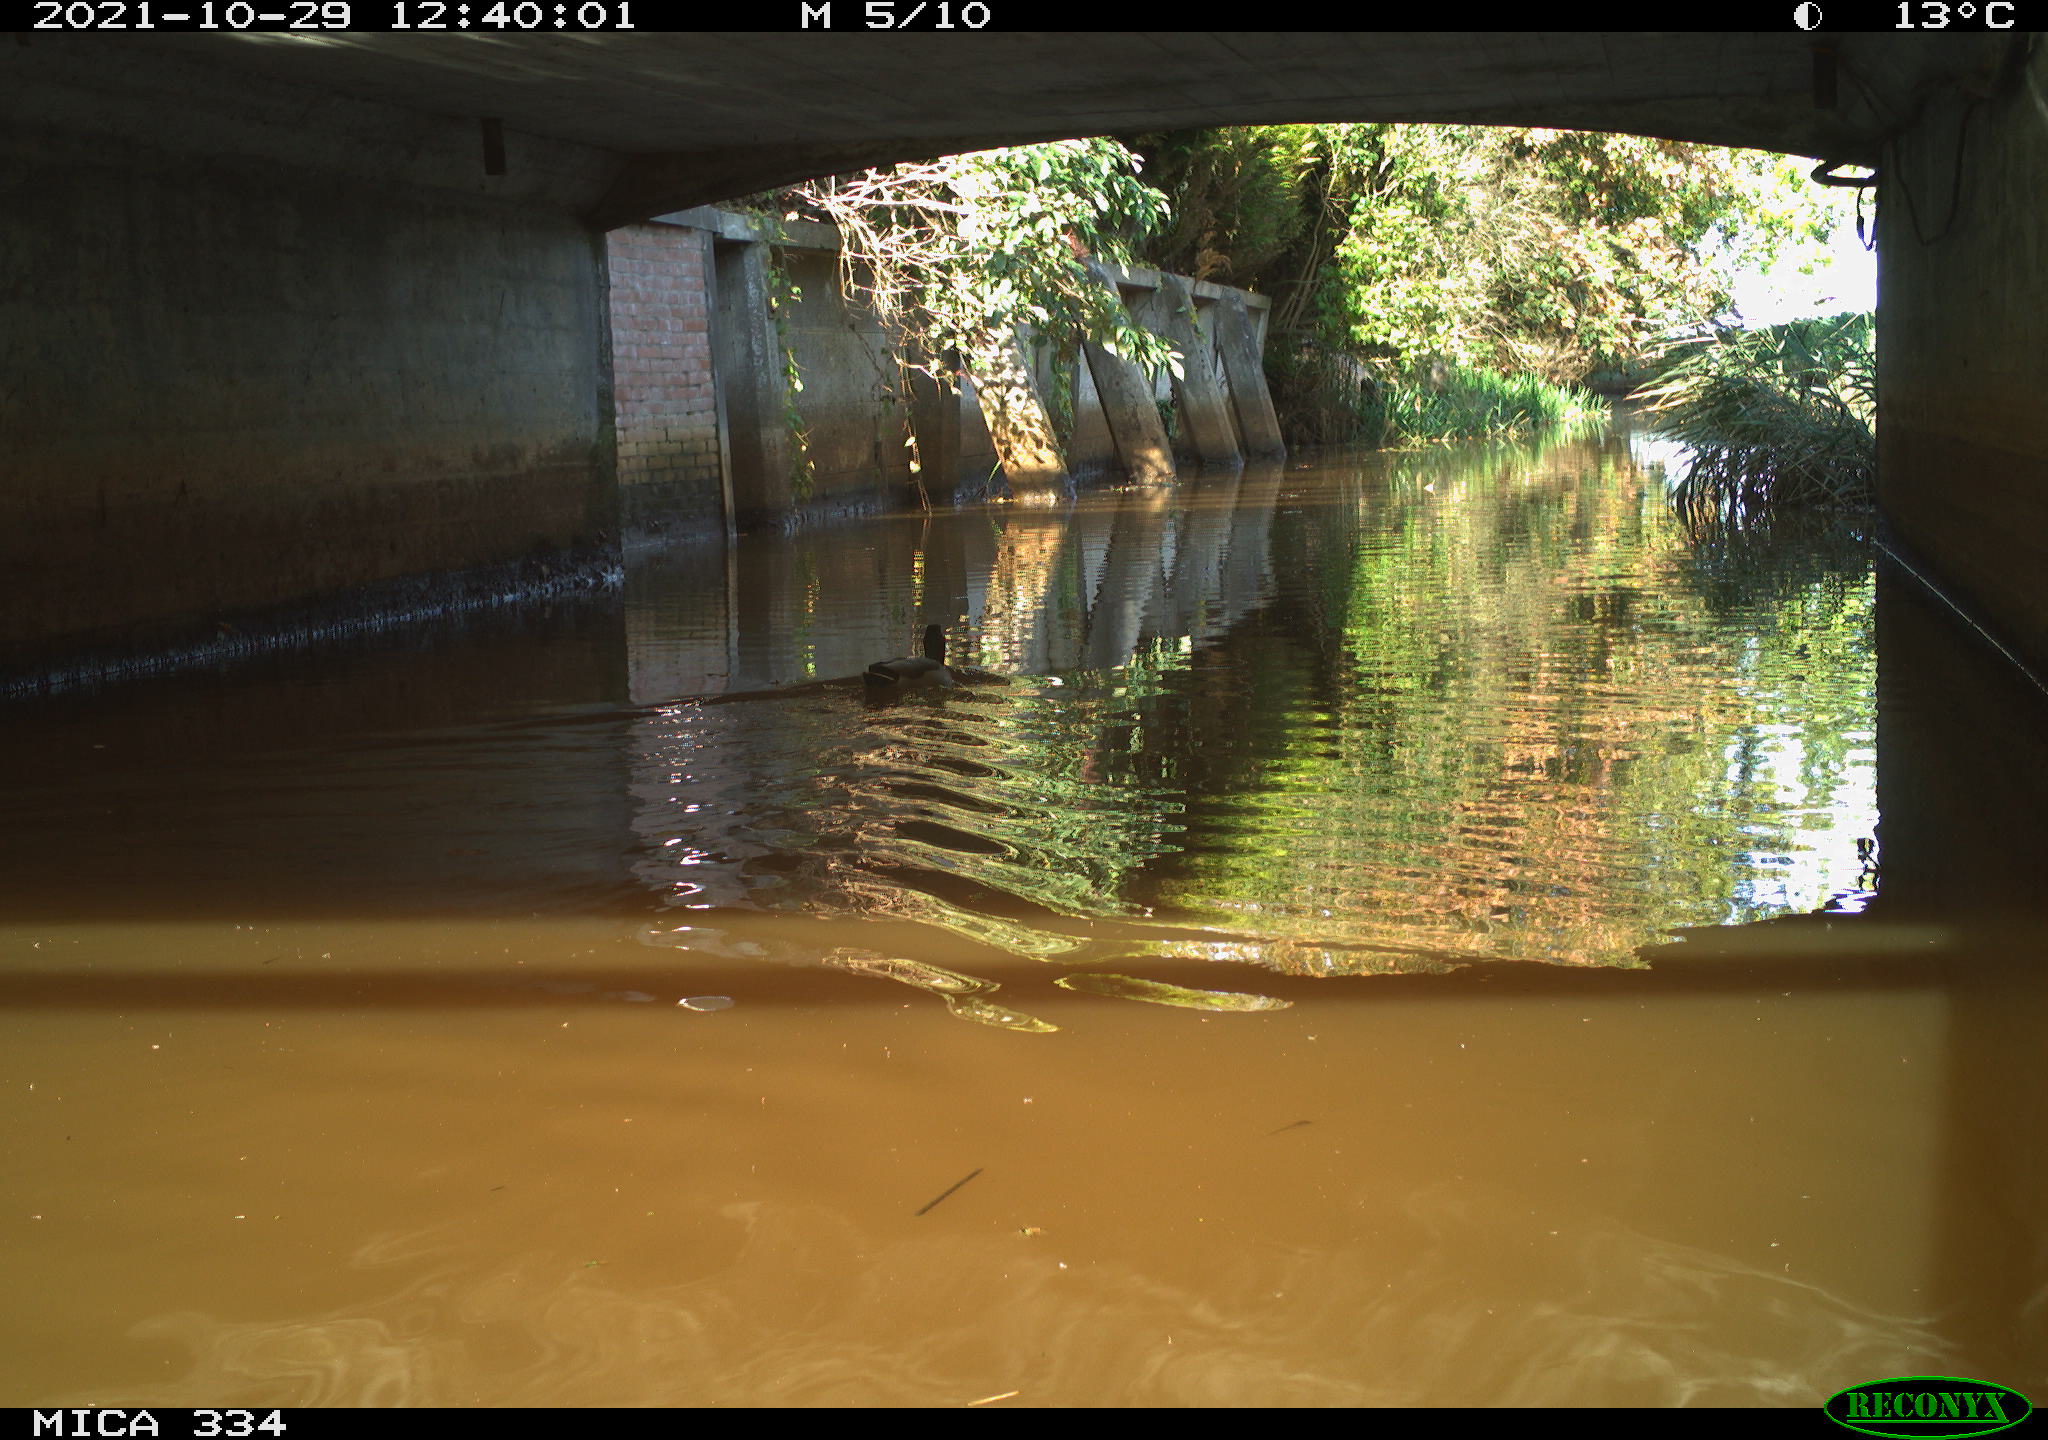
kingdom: Animalia
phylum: Chordata
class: Aves
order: Anseriformes
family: Anatidae
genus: Anas
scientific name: Anas platyrhynchos
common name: Mallard
